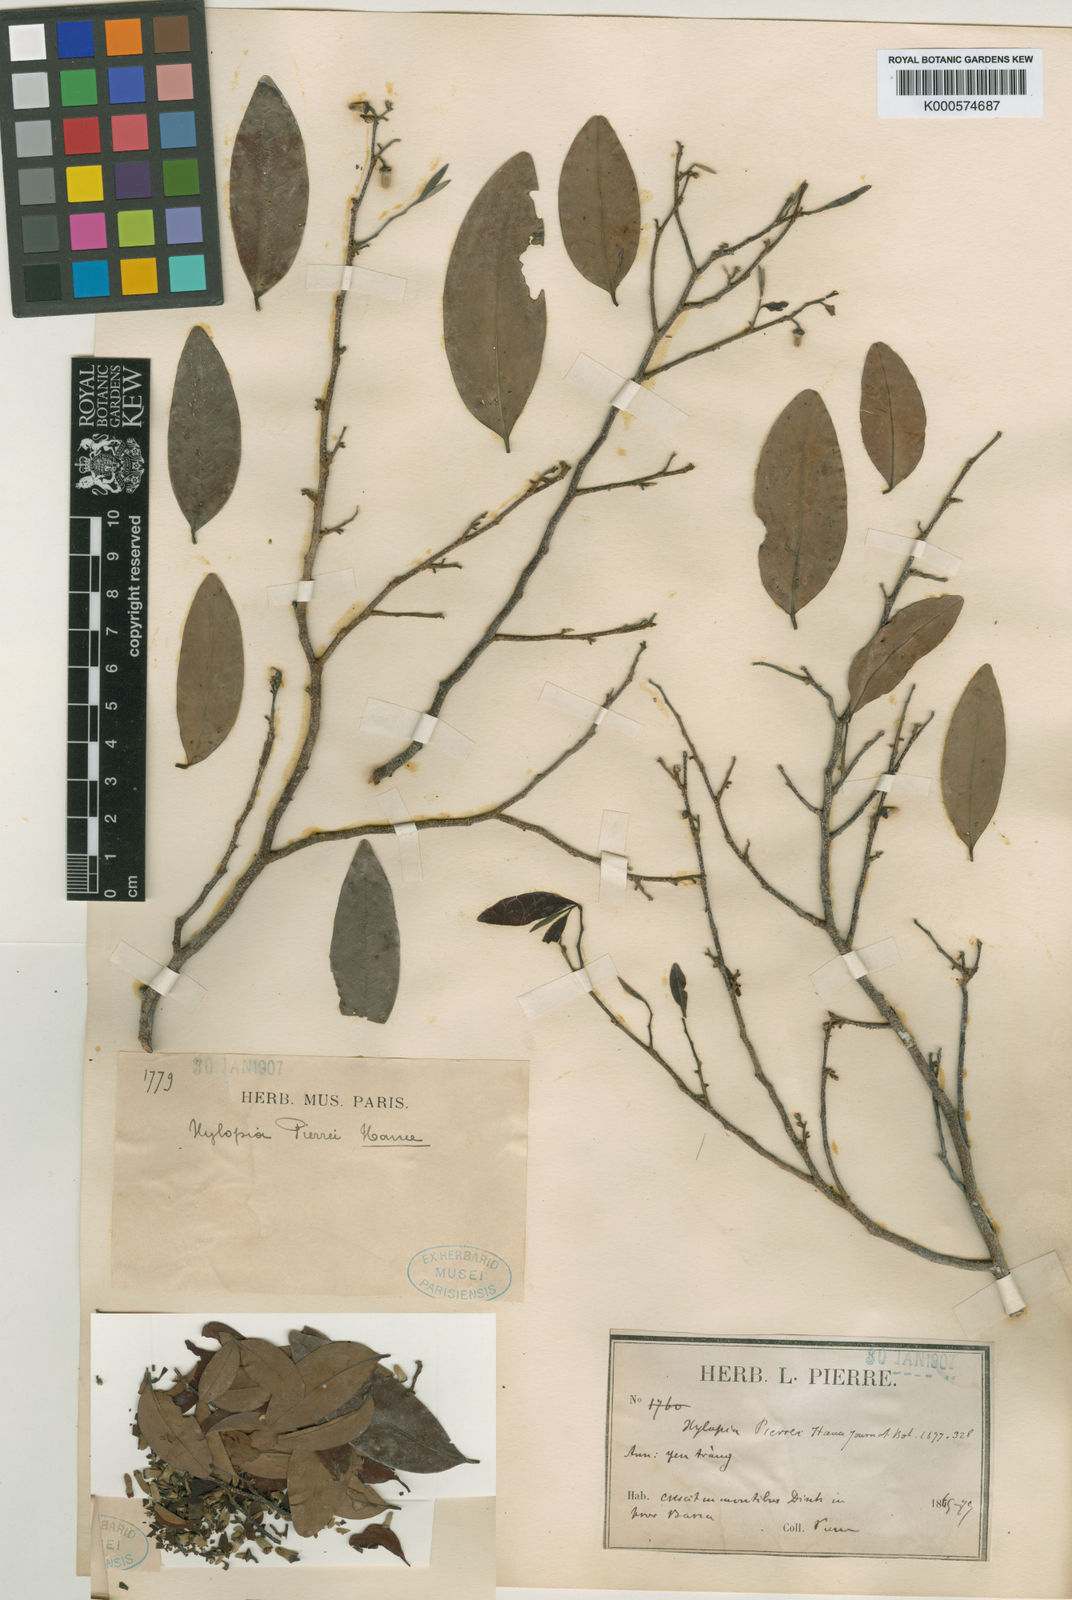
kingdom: Plantae
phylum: Tracheophyta
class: Magnoliopsida
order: Magnoliales
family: Annonaceae
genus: Xylopia
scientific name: Xylopia pierrei
